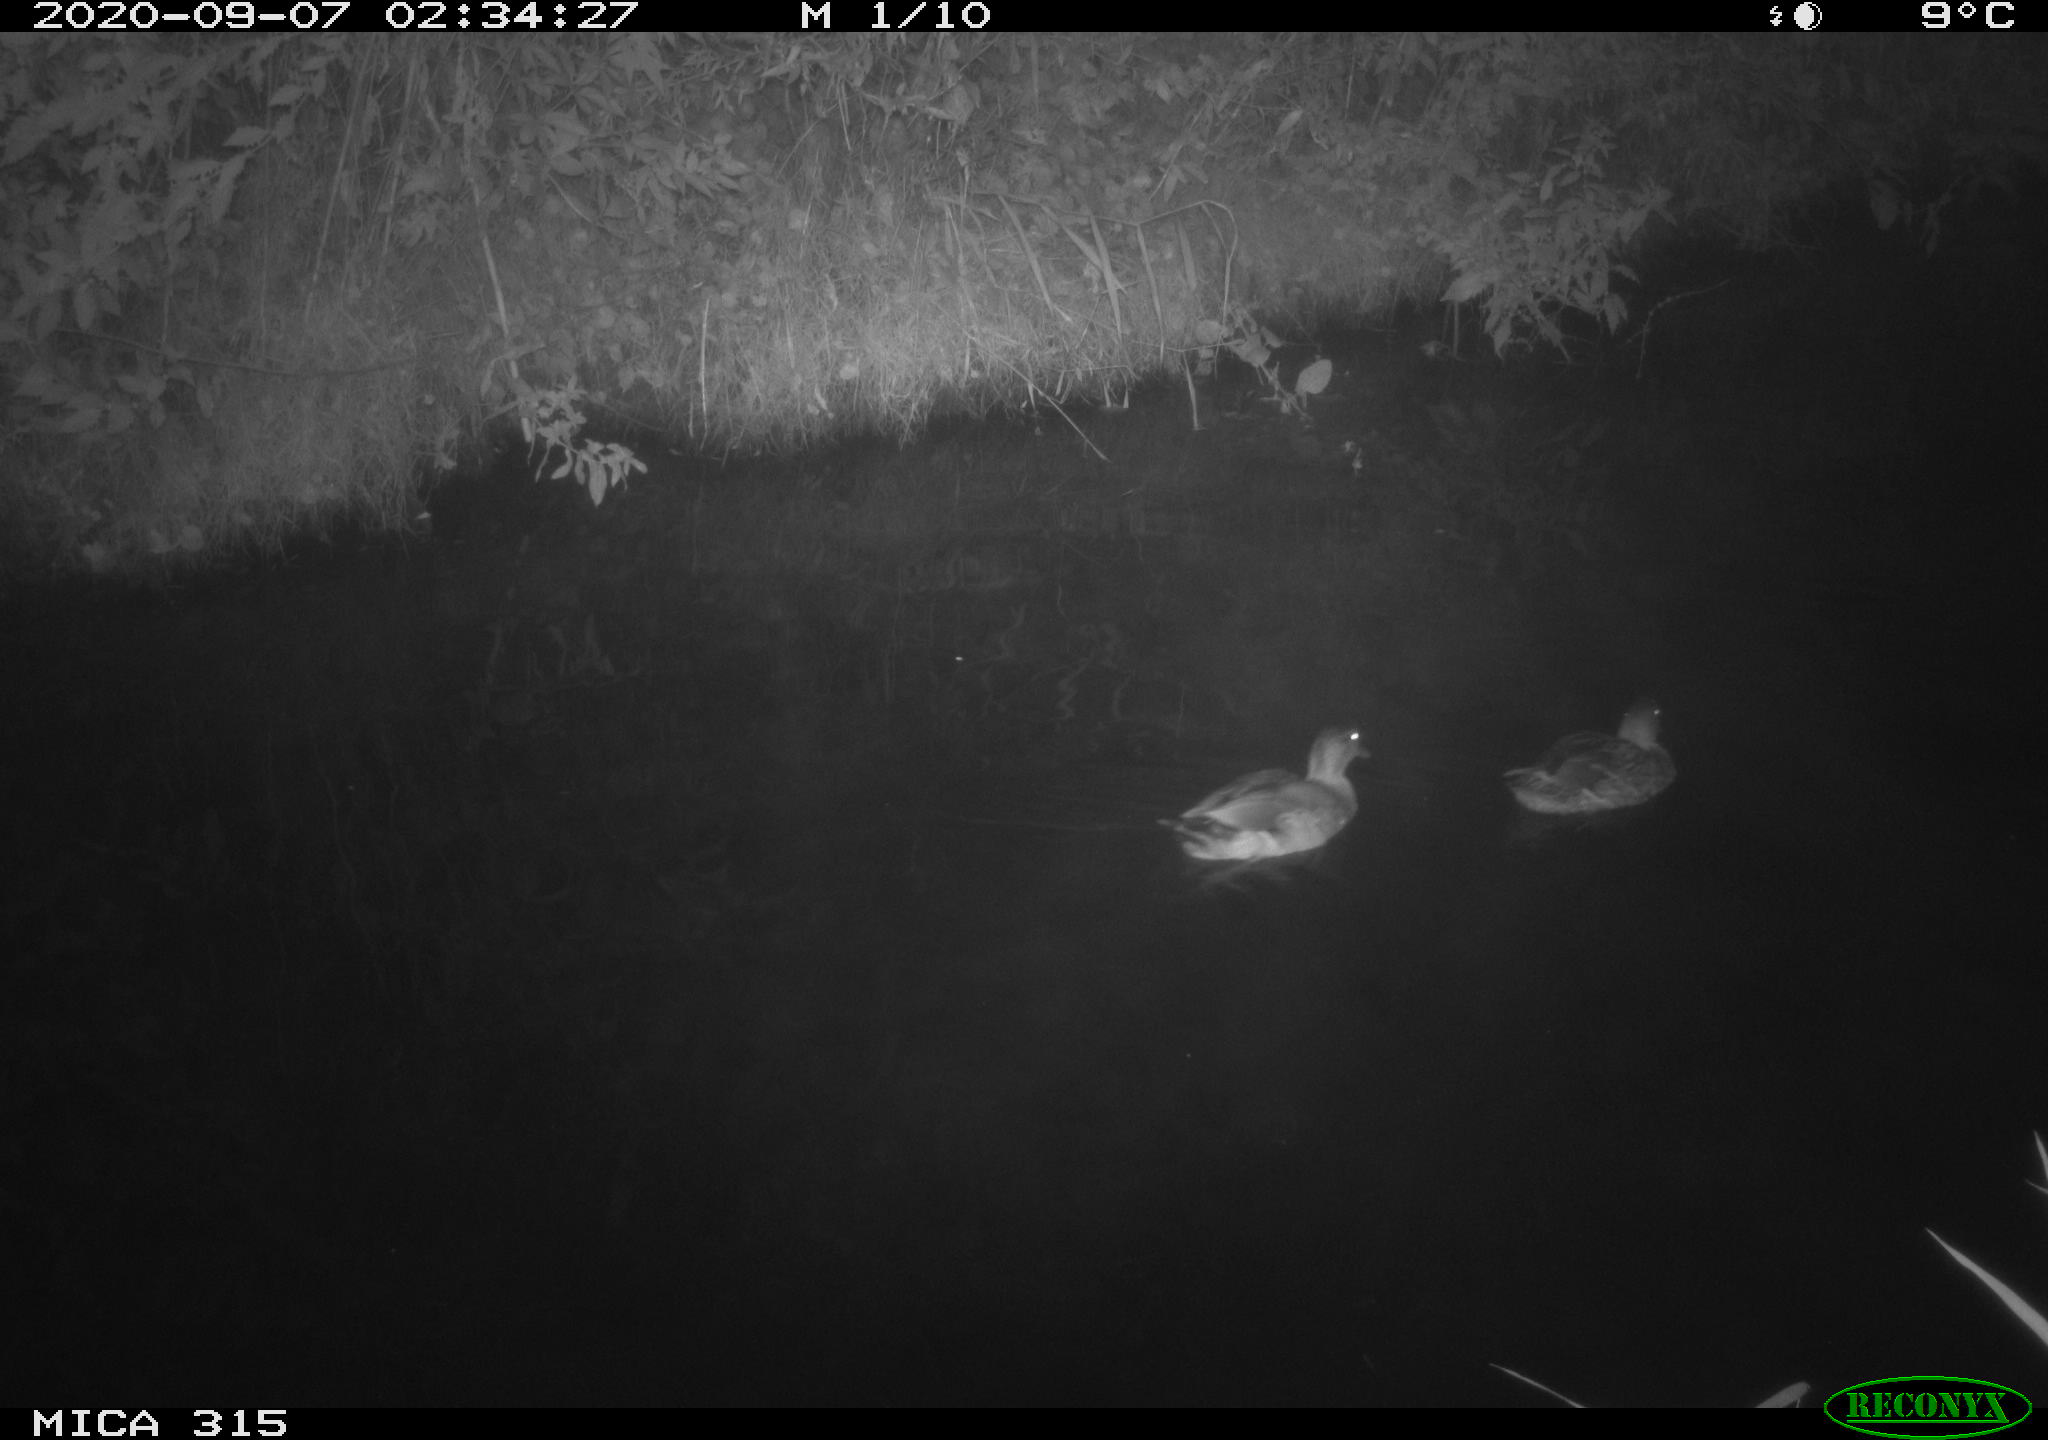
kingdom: Animalia
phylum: Chordata
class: Aves
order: Anseriformes
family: Anatidae
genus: Anas
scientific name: Anas platyrhynchos
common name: Mallard
